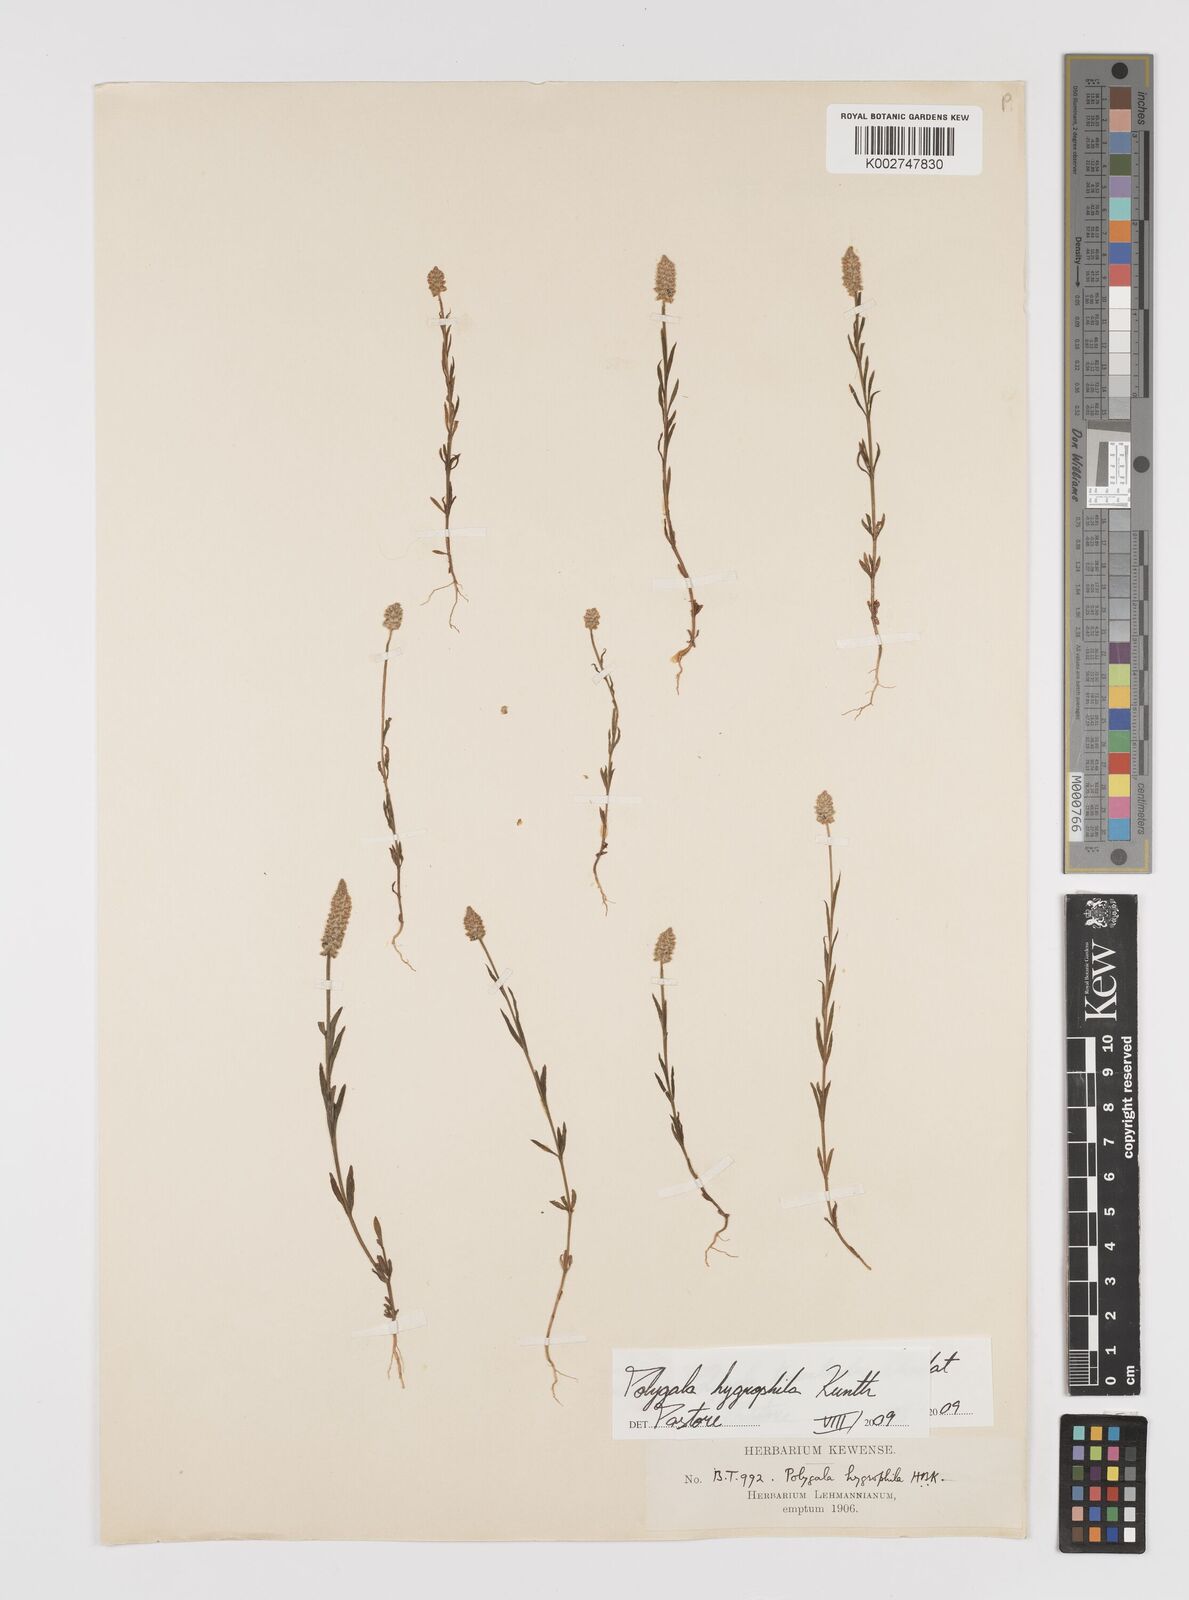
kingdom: Plantae
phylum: Tracheophyta
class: Magnoliopsida
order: Fabales
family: Polygalaceae
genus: Polygala
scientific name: Polygala hygrophila
